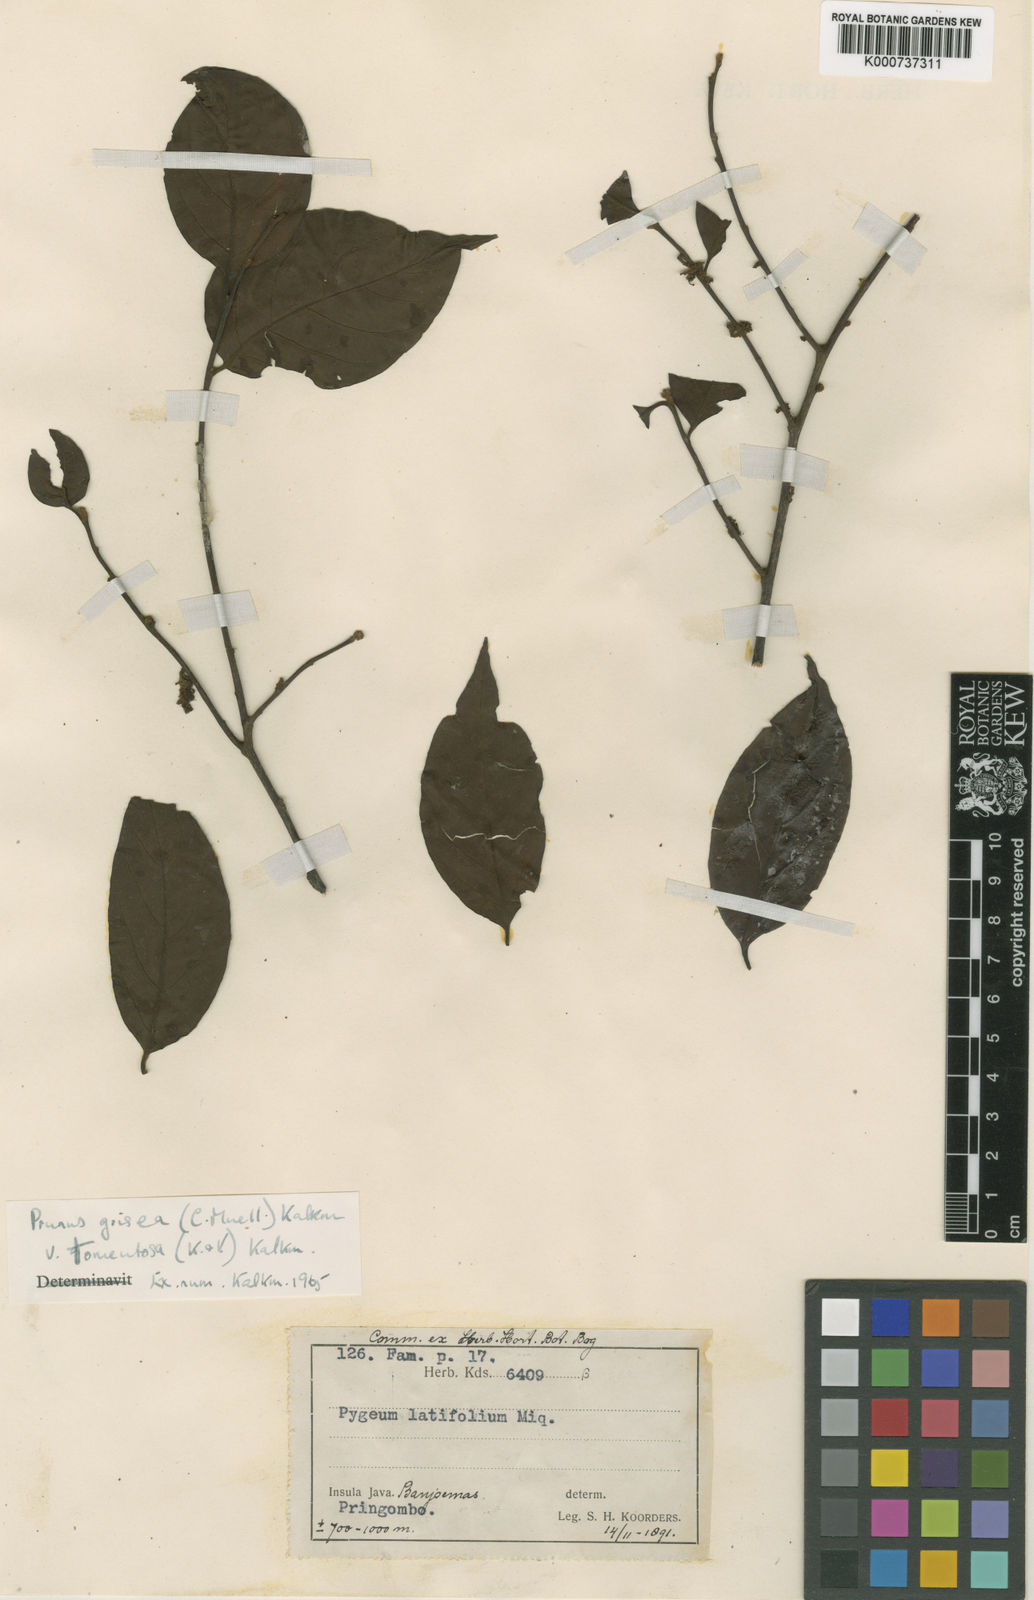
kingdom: Plantae
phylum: Tracheophyta
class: Magnoliopsida
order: Rosales
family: Rosaceae
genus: Prunus
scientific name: Prunus
